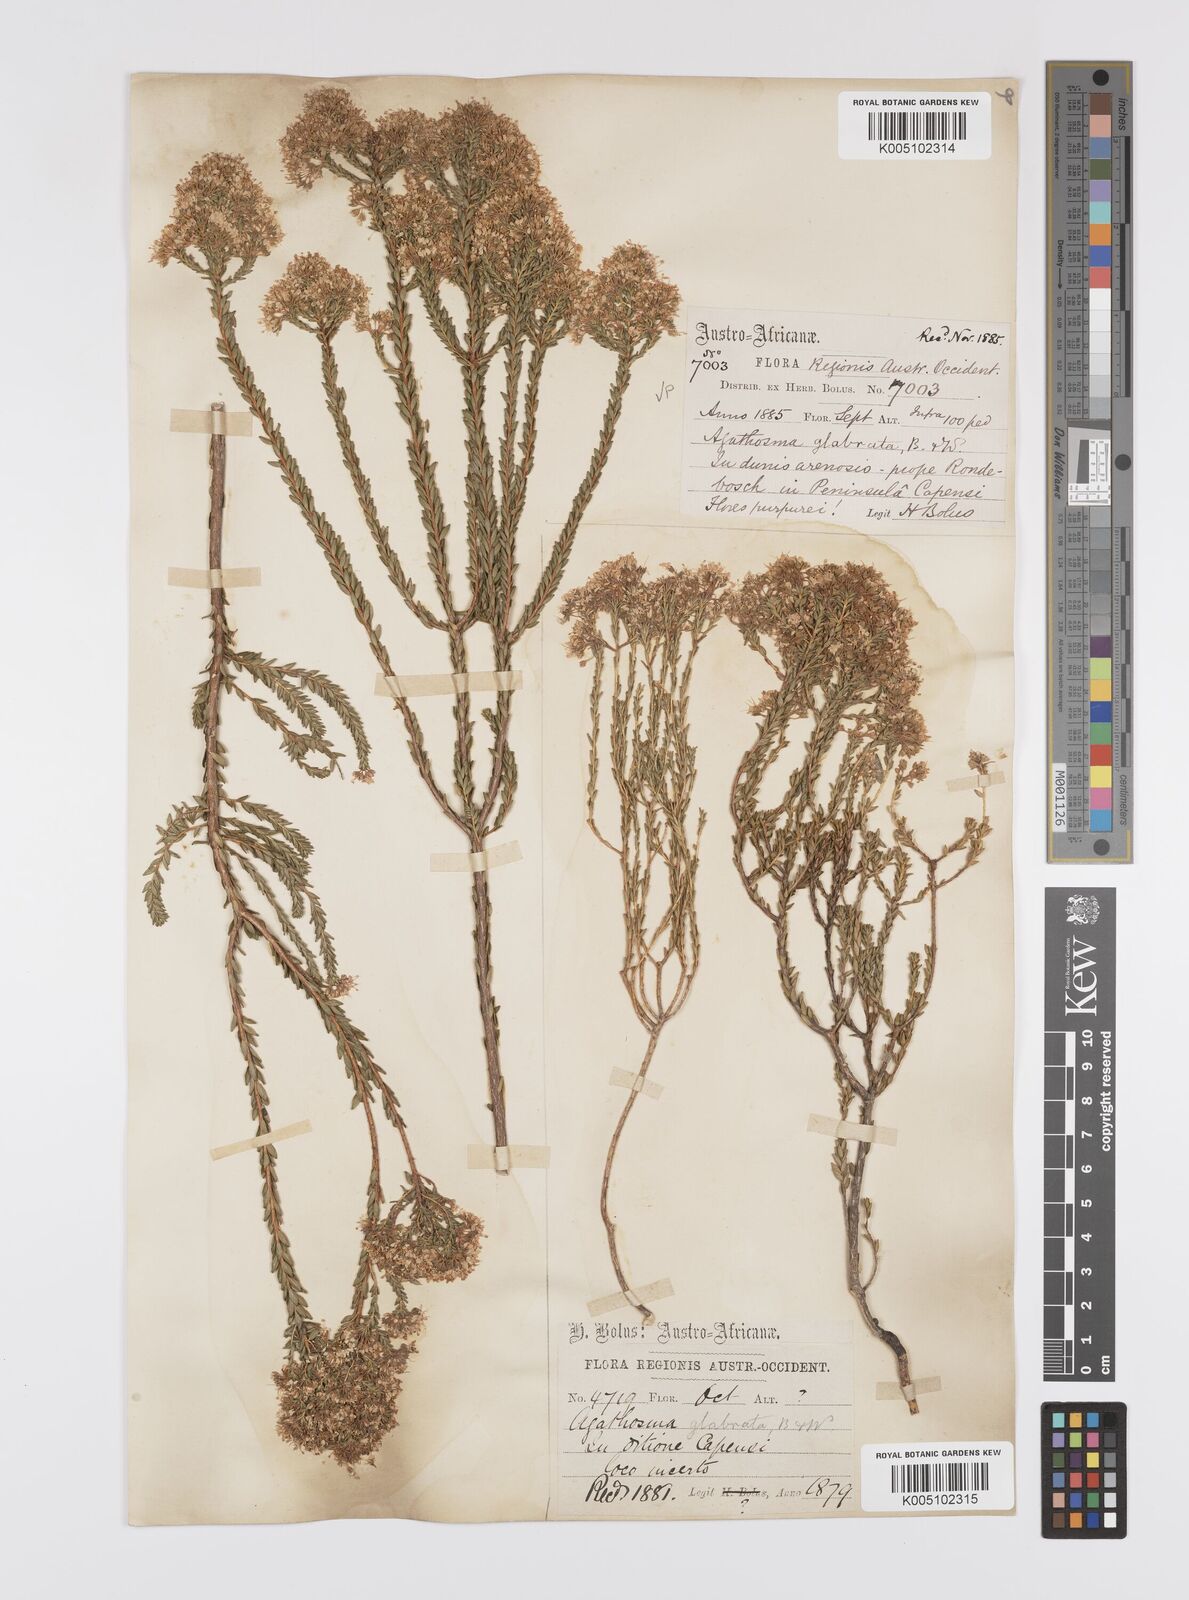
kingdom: Plantae
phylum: Tracheophyta
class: Magnoliopsida
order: Sapindales
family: Rutaceae
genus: Agathosma
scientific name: Agathosma
